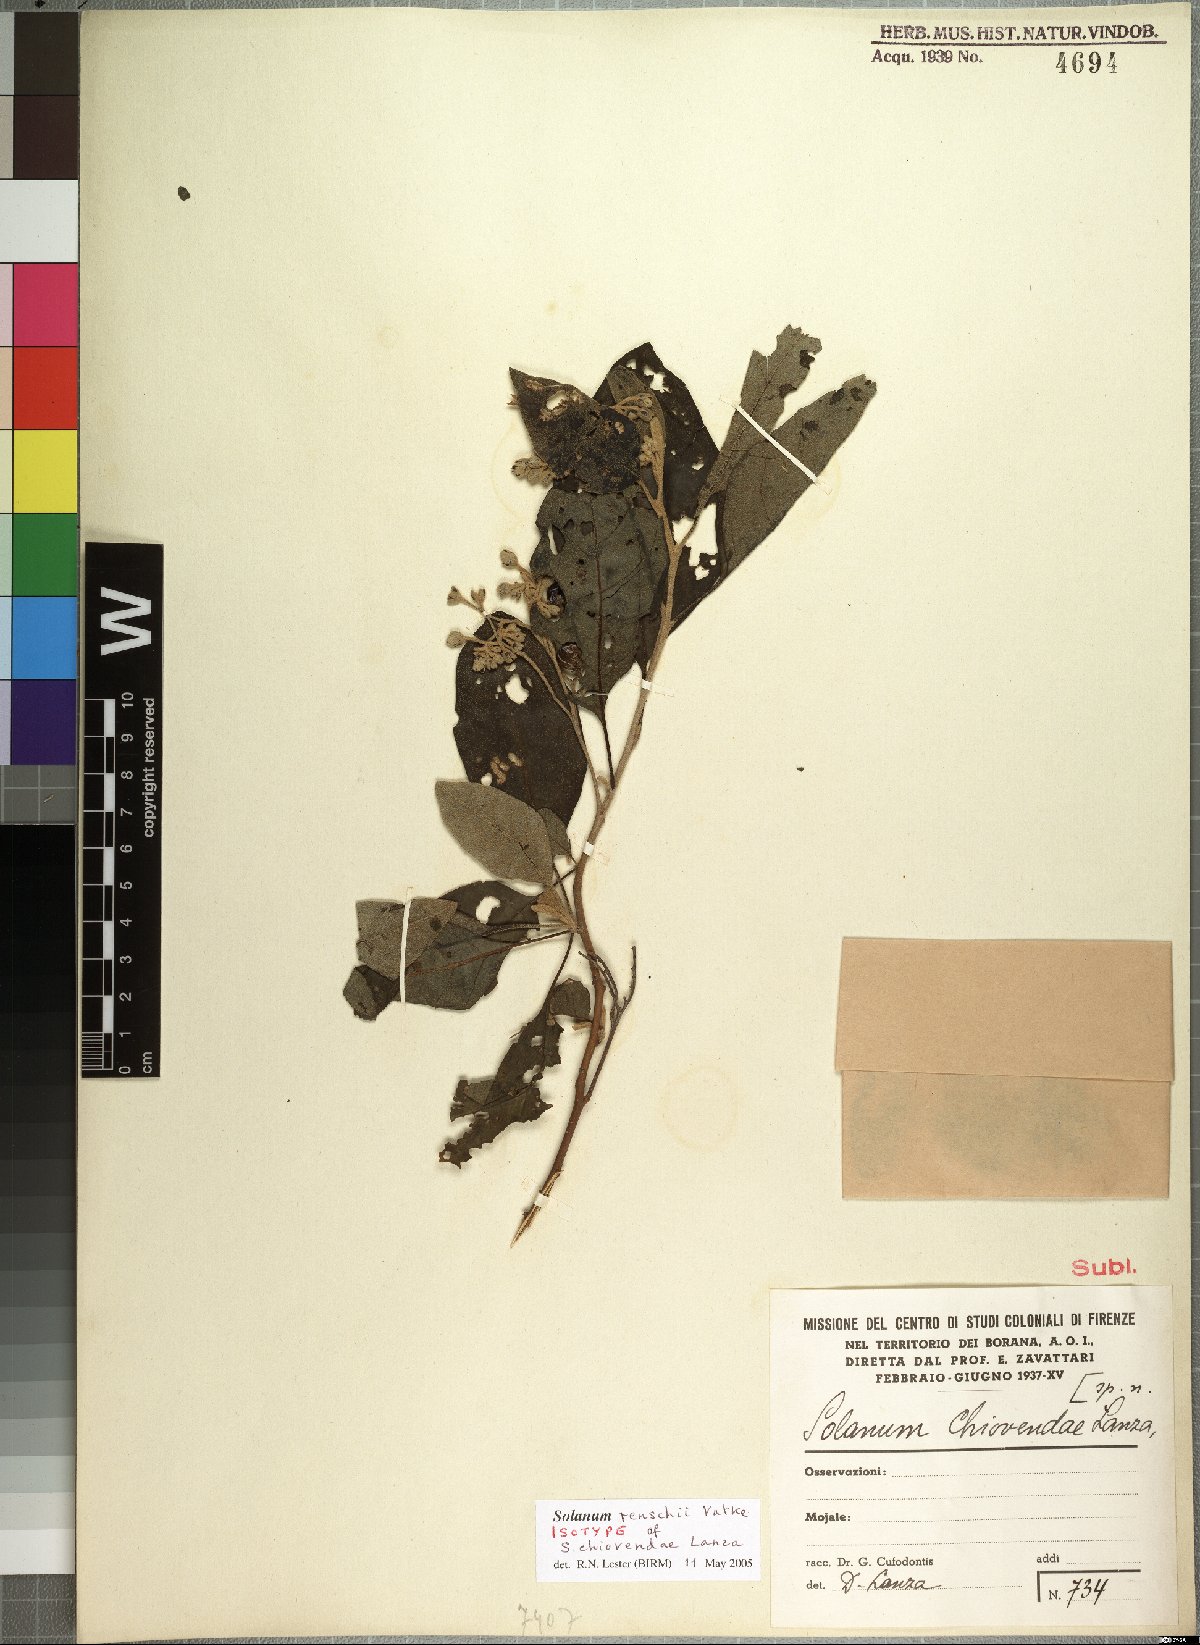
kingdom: Plantae
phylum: Tracheophyta
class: Magnoliopsida
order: Solanales
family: Solanaceae
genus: Solanum
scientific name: Solanum tettense
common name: Mozambique bitter apple
